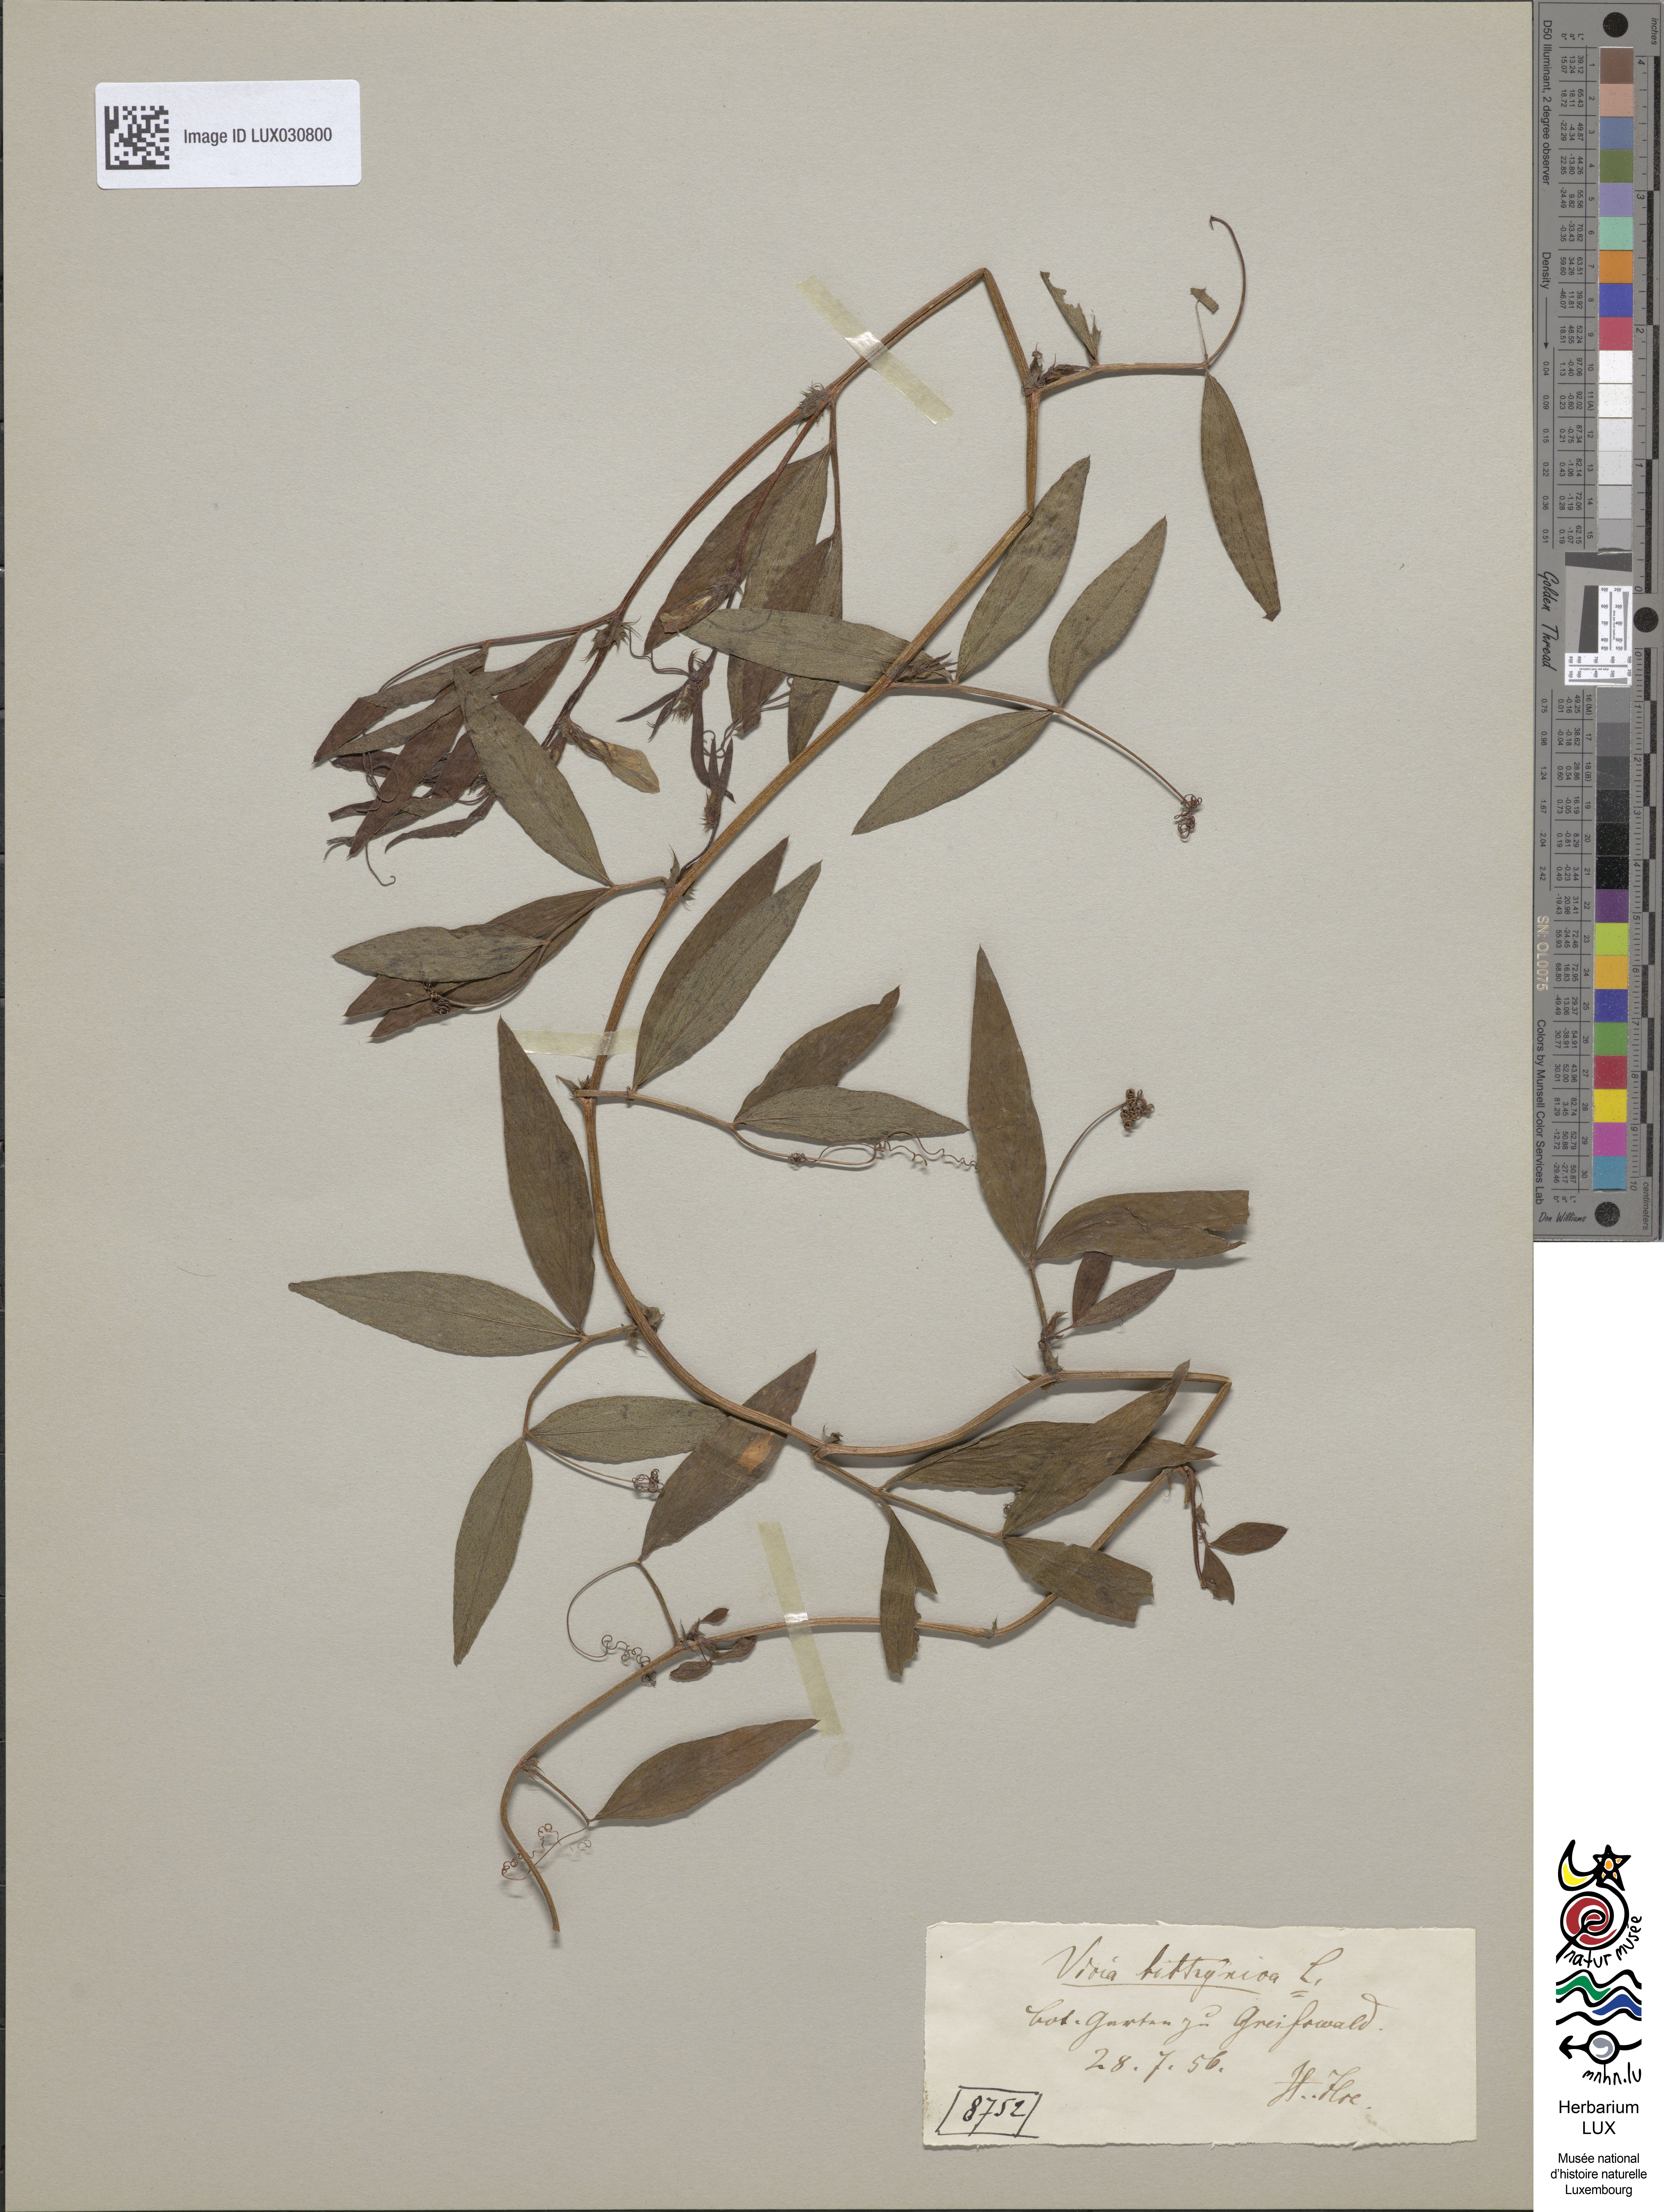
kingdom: Plantae
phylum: Tracheophyta
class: Magnoliopsida
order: Fabales
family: Fabaceae
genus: Vicia
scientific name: Vicia bithynica
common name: Bithynian vetch
